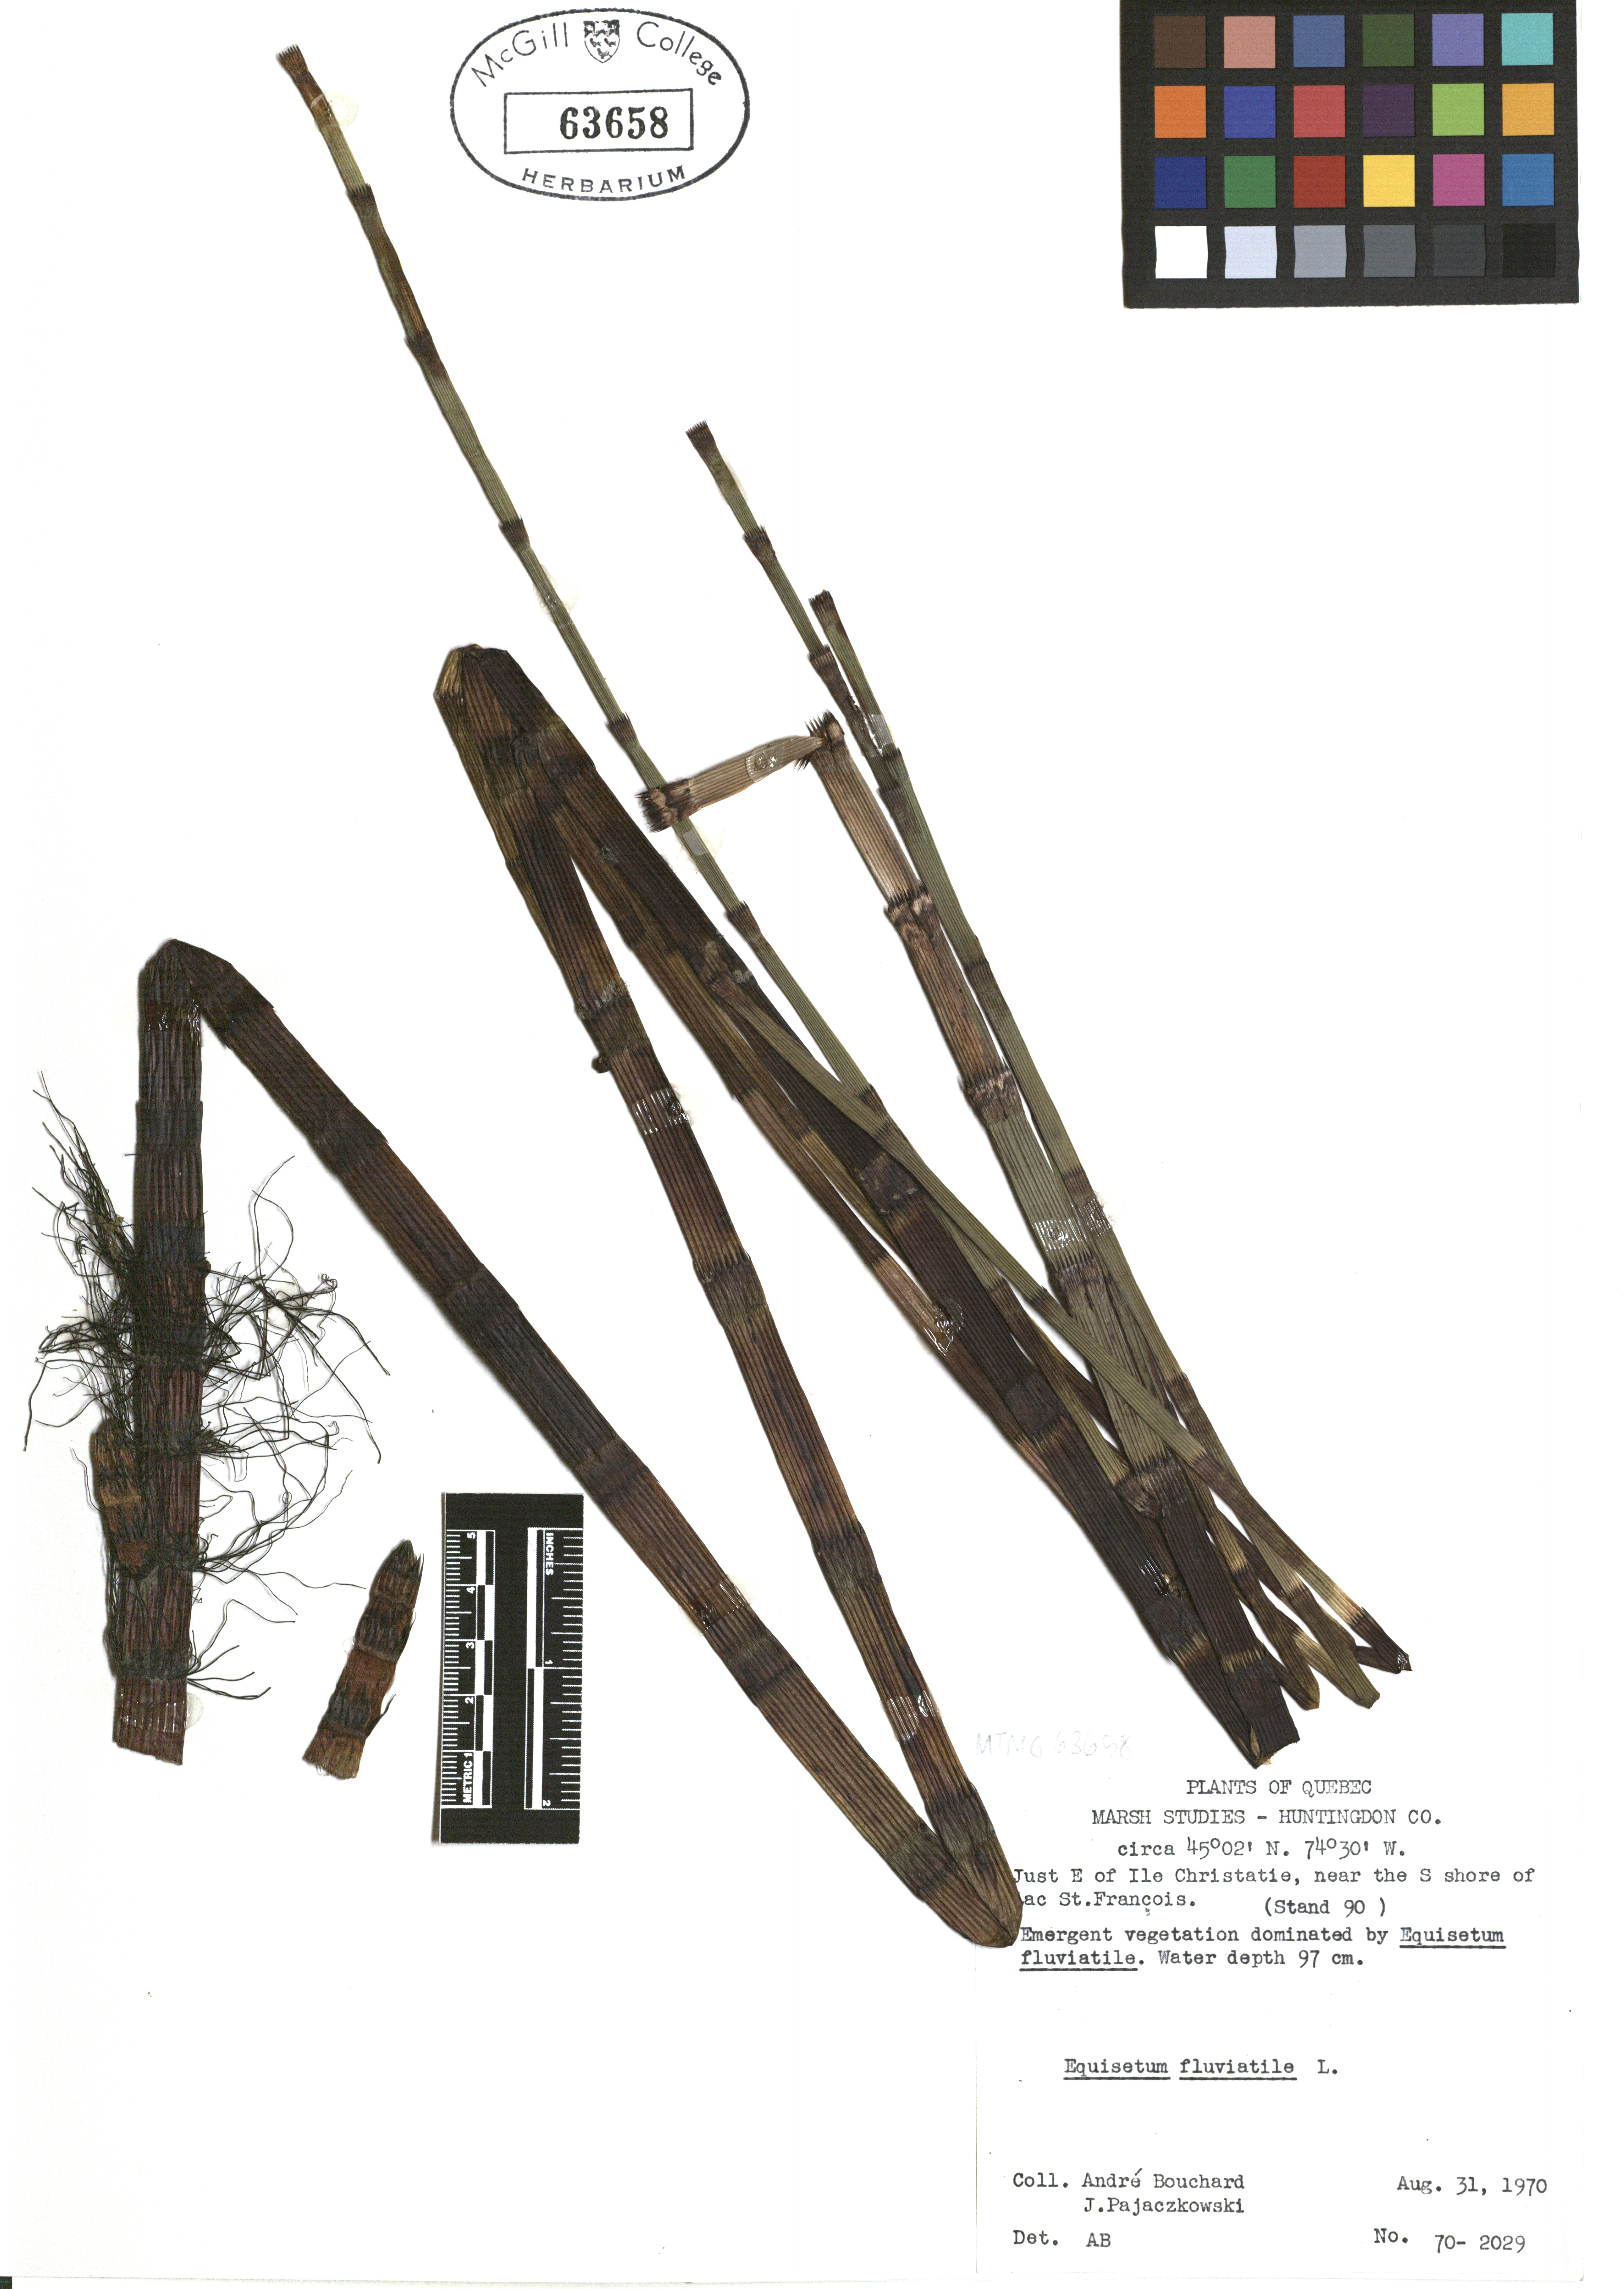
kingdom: Plantae
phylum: Tracheophyta
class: Polypodiopsida
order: Equisetales
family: Equisetaceae
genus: Equisetum
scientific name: Equisetum fluviatile
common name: Water horsetail
